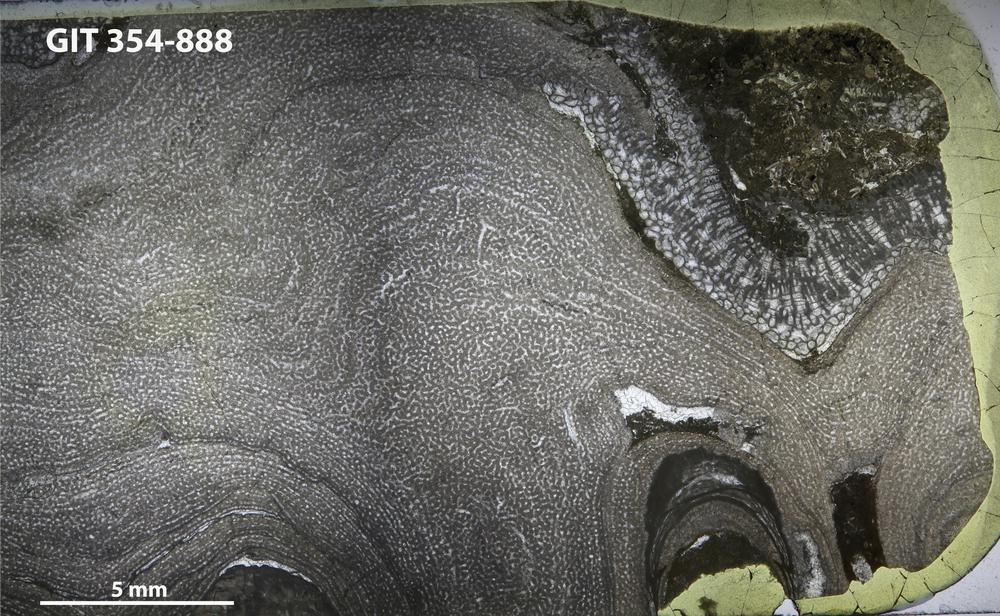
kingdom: Animalia
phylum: Porifera
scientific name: Porifera
